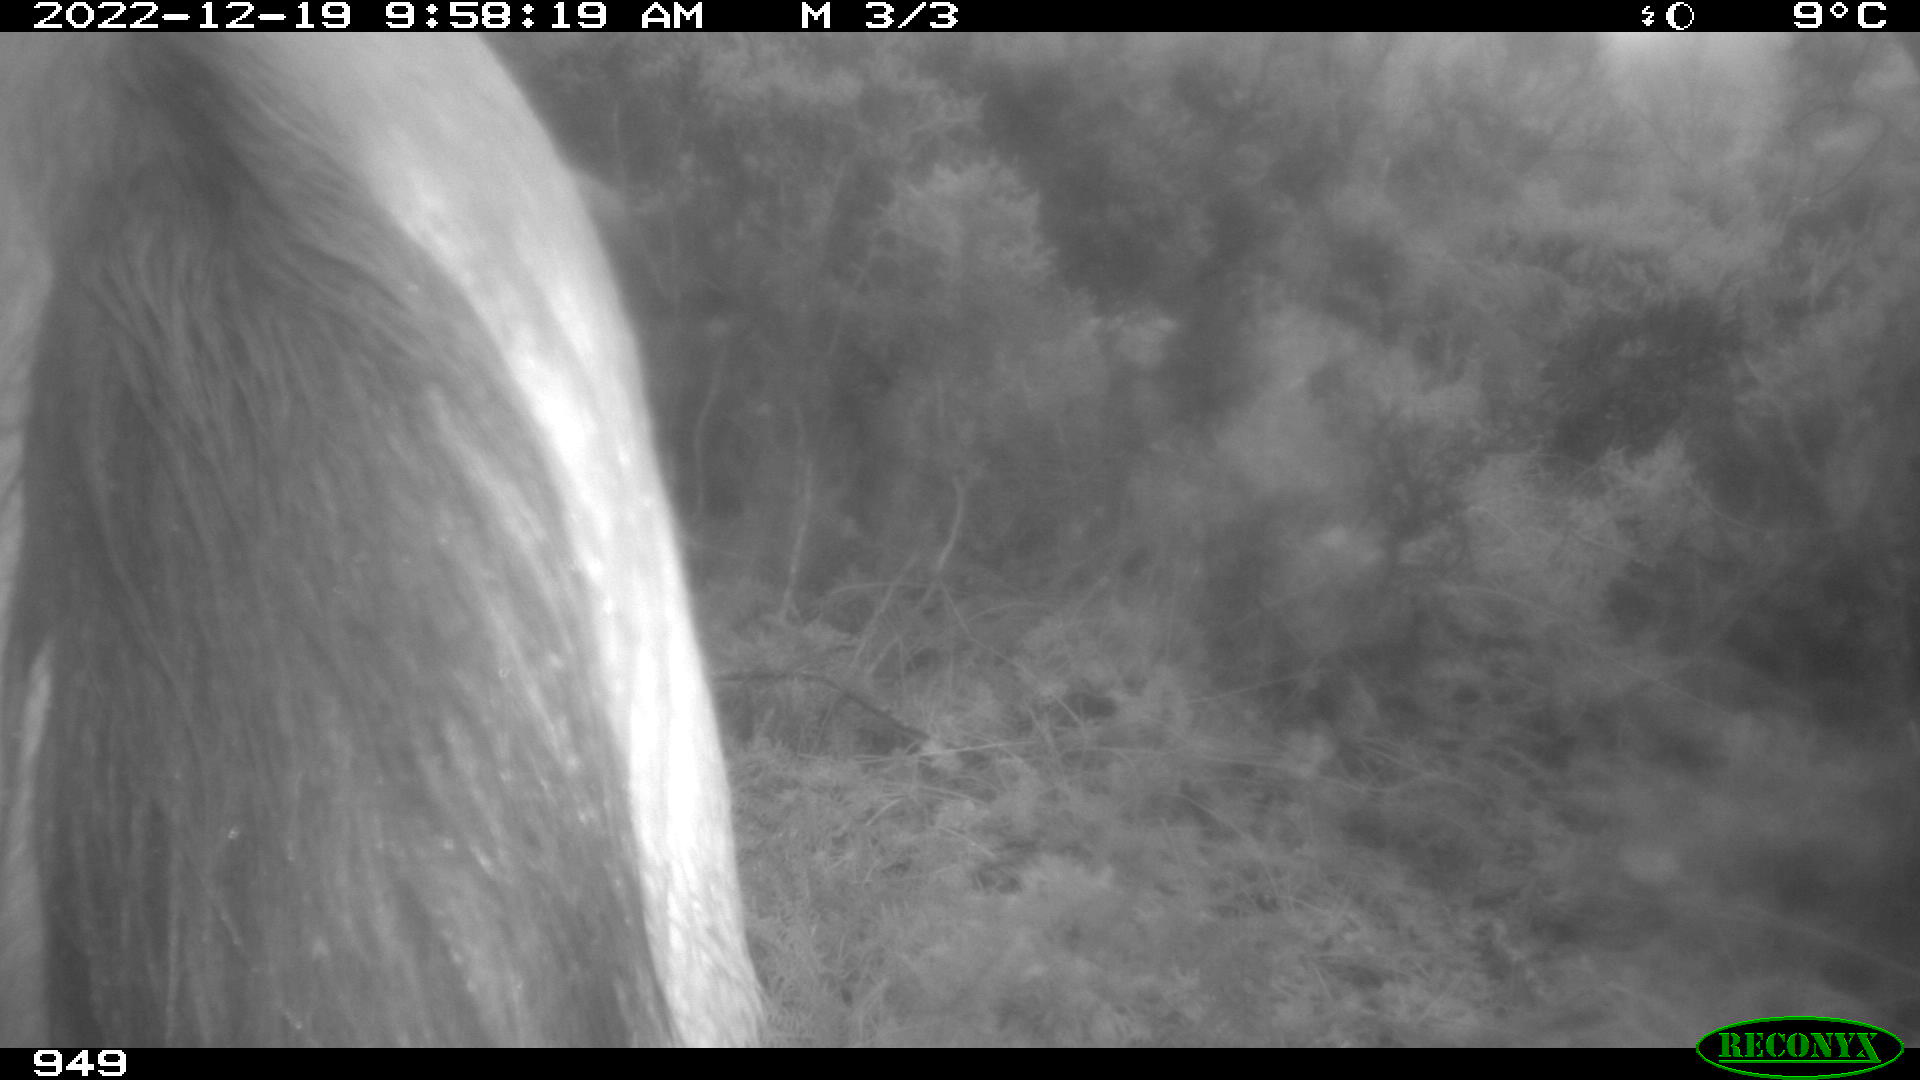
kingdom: Animalia
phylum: Chordata
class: Mammalia
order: Perissodactyla
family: Equidae
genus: Equus
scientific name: Equus caballus
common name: Horse
